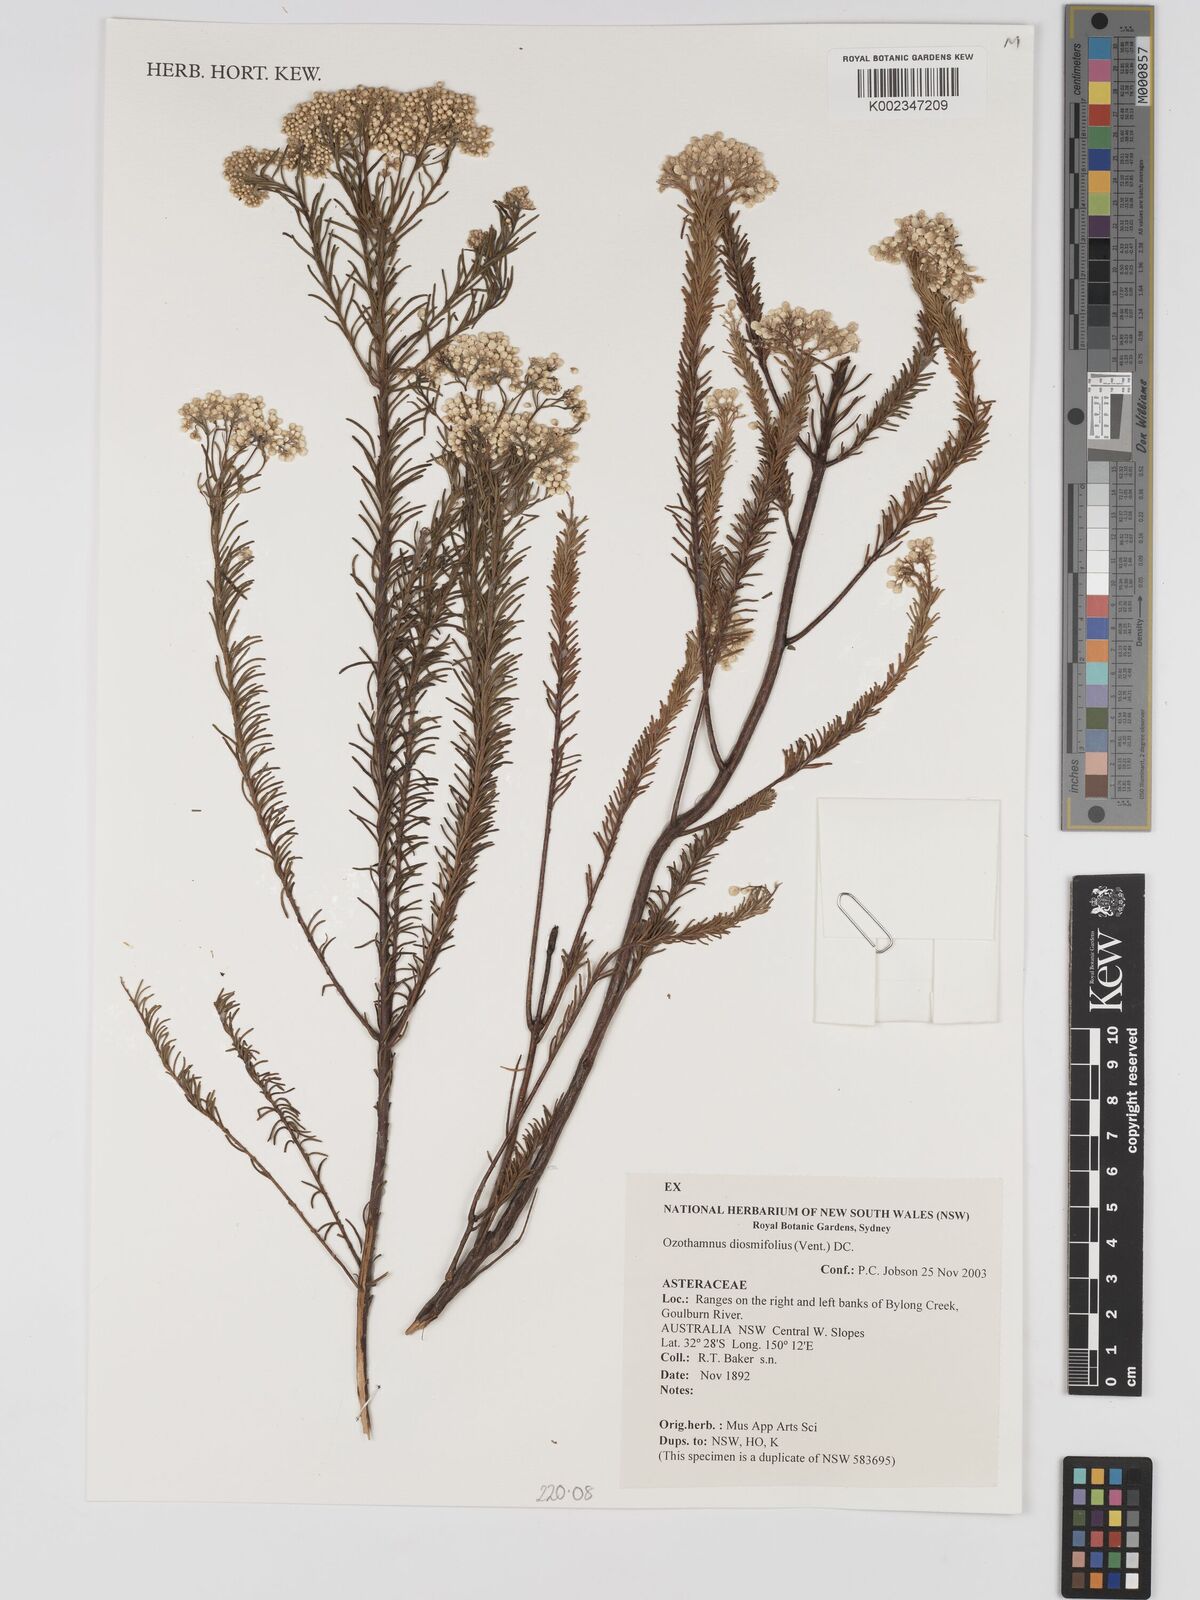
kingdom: Plantae
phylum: Tracheophyta
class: Magnoliopsida
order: Asterales
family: Asteraceae
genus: Ozothamnus
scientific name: Ozothamnus diosmifolius
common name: White-dogwood
